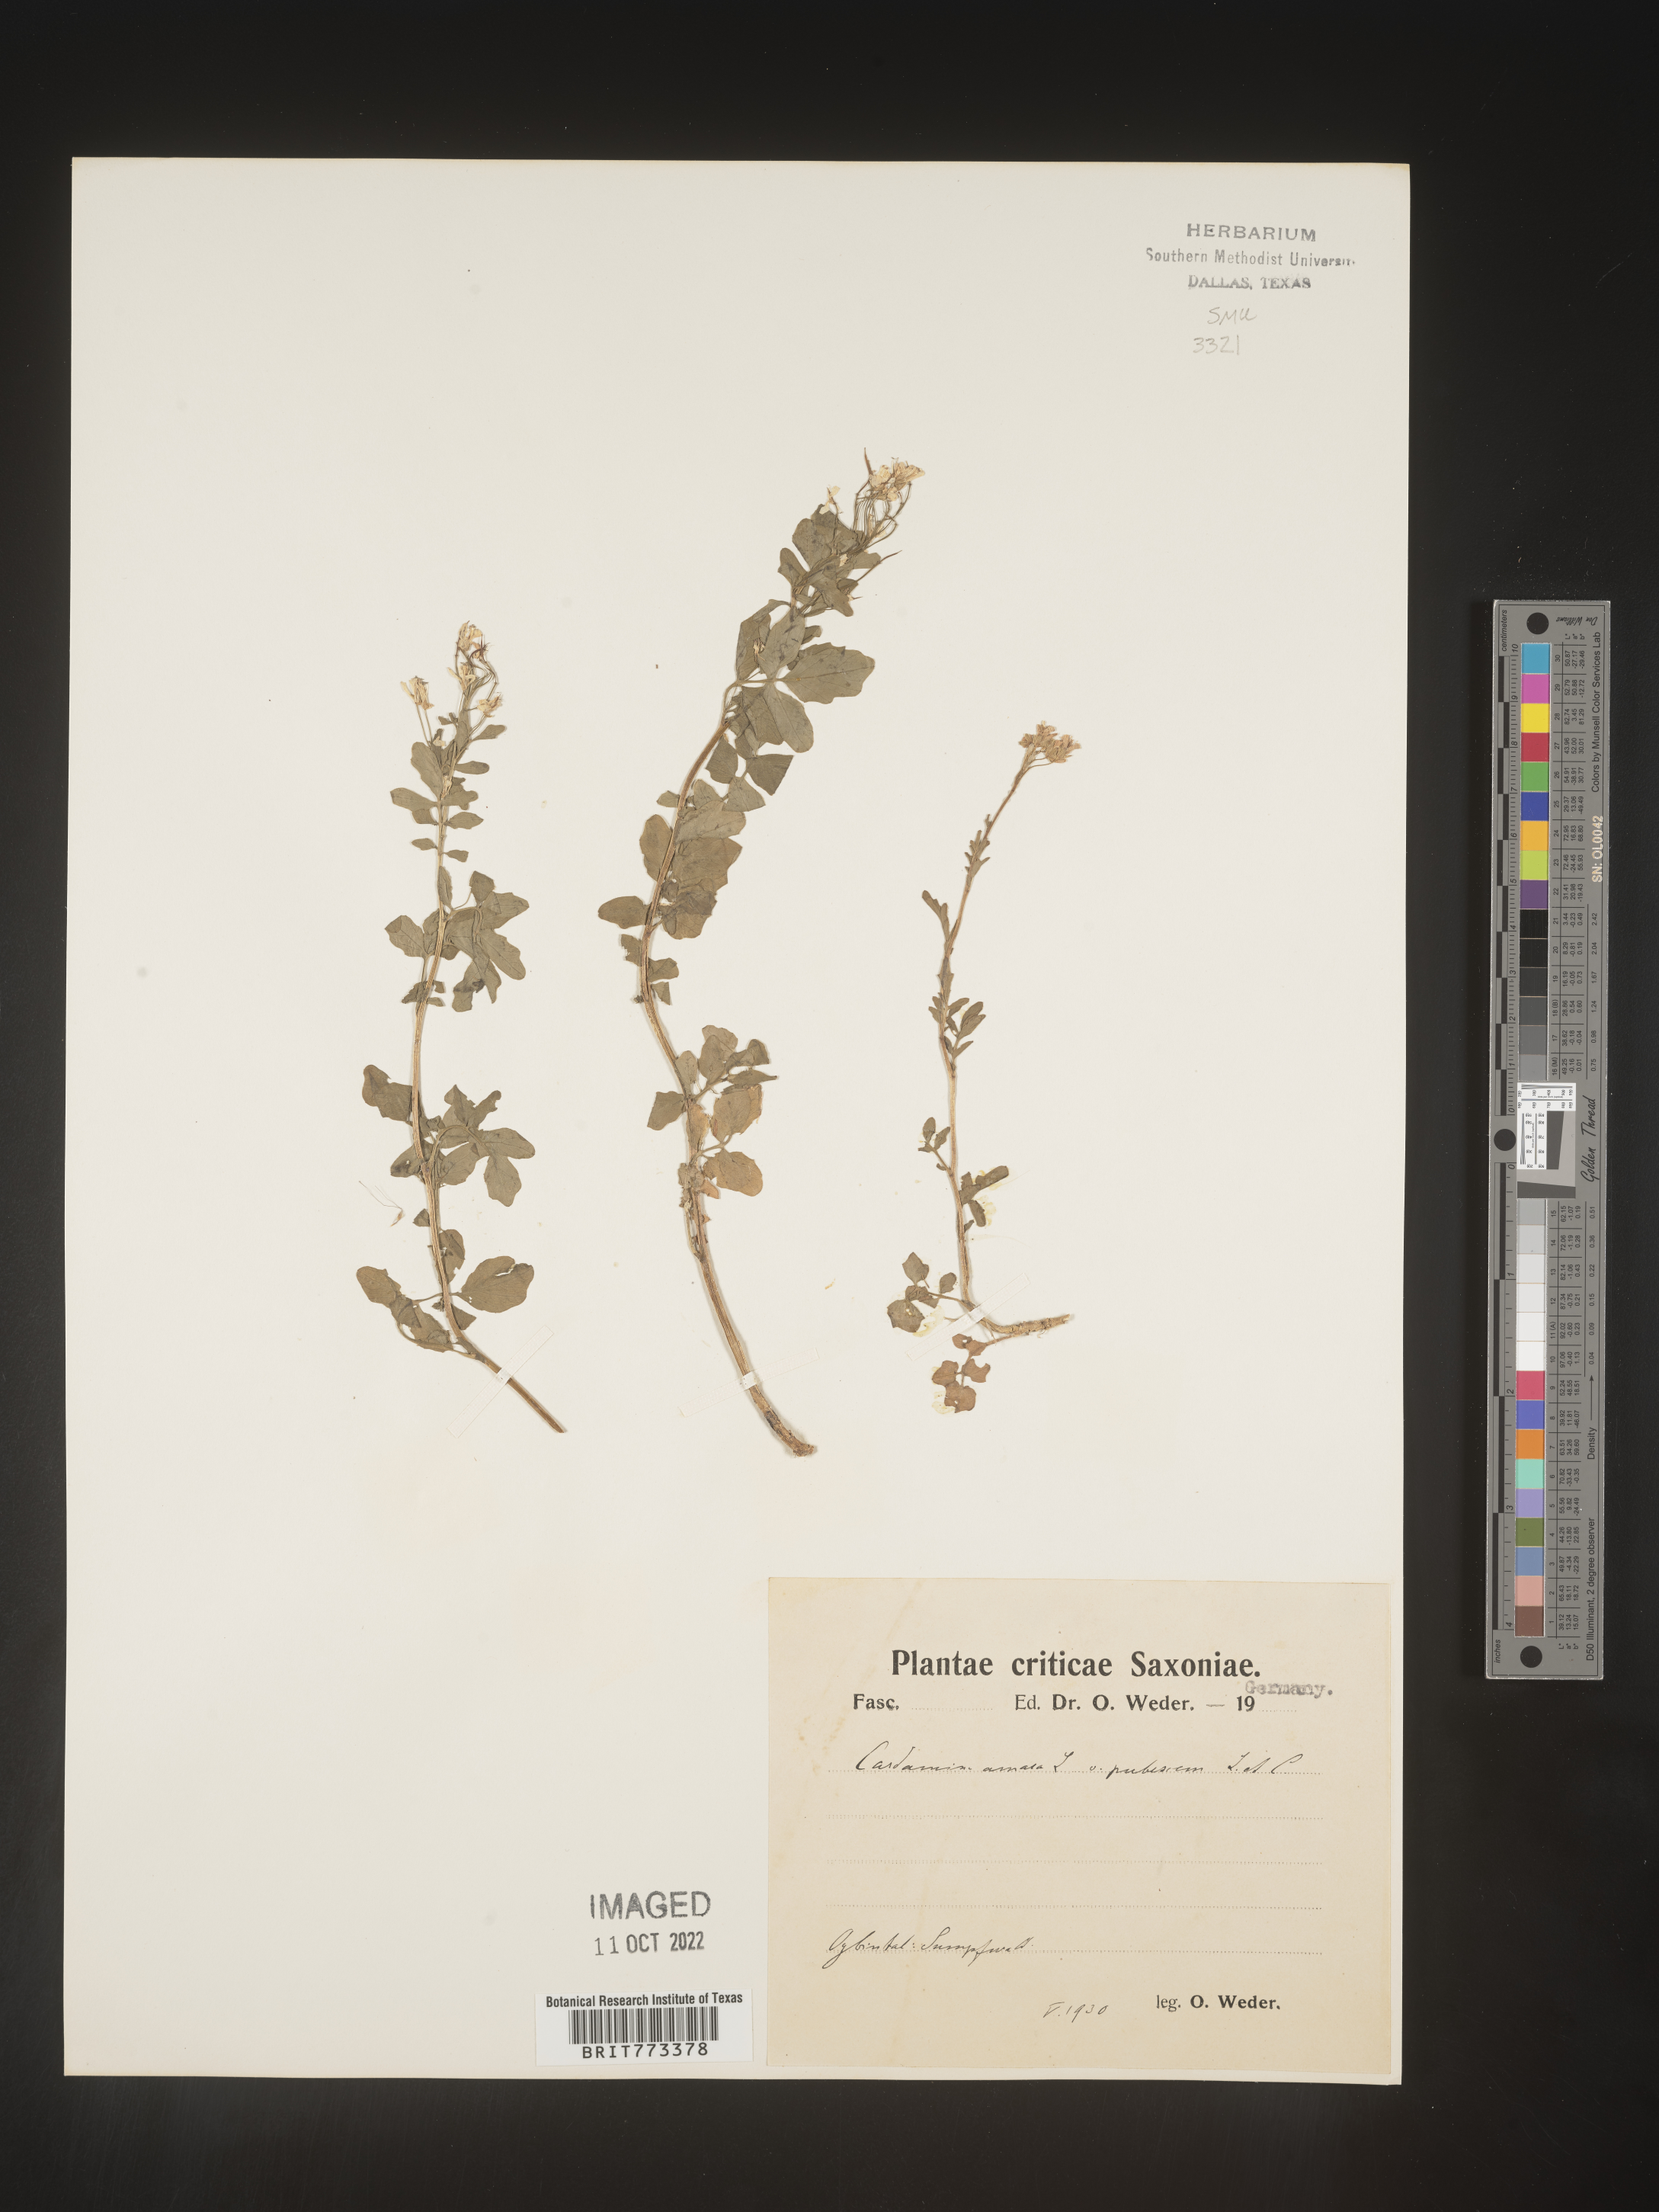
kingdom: Plantae
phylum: Tracheophyta
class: Magnoliopsida
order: Brassicales
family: Brassicaceae
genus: Cardamine
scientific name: Cardamine
